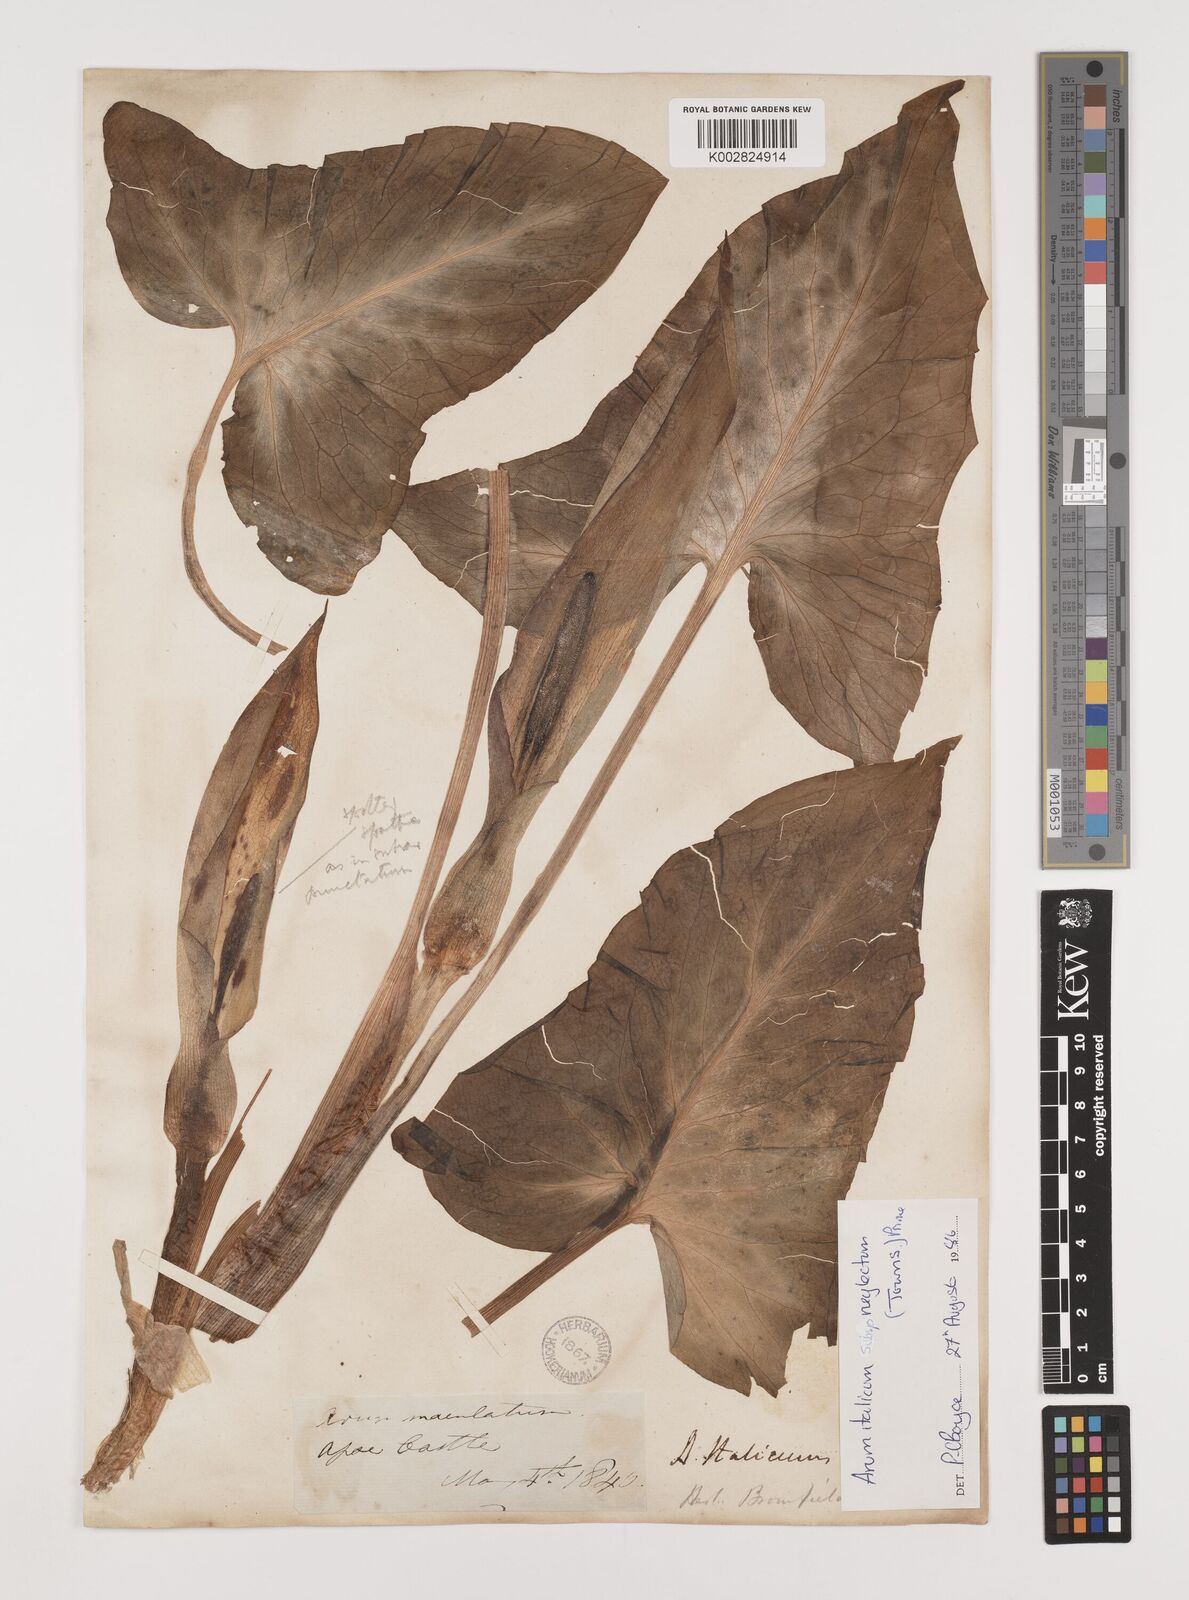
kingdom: Plantae
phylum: Tracheophyta
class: Liliopsida
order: Alismatales
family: Araceae
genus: Arum
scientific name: Arum italicum
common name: Italian lords-and-ladies
